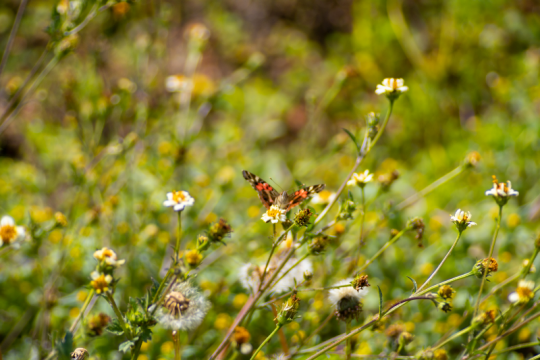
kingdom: Animalia
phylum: Arthropoda
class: Insecta
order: Lepidoptera
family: Nymphalidae
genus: Vanessa
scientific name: Vanessa braziliensis
